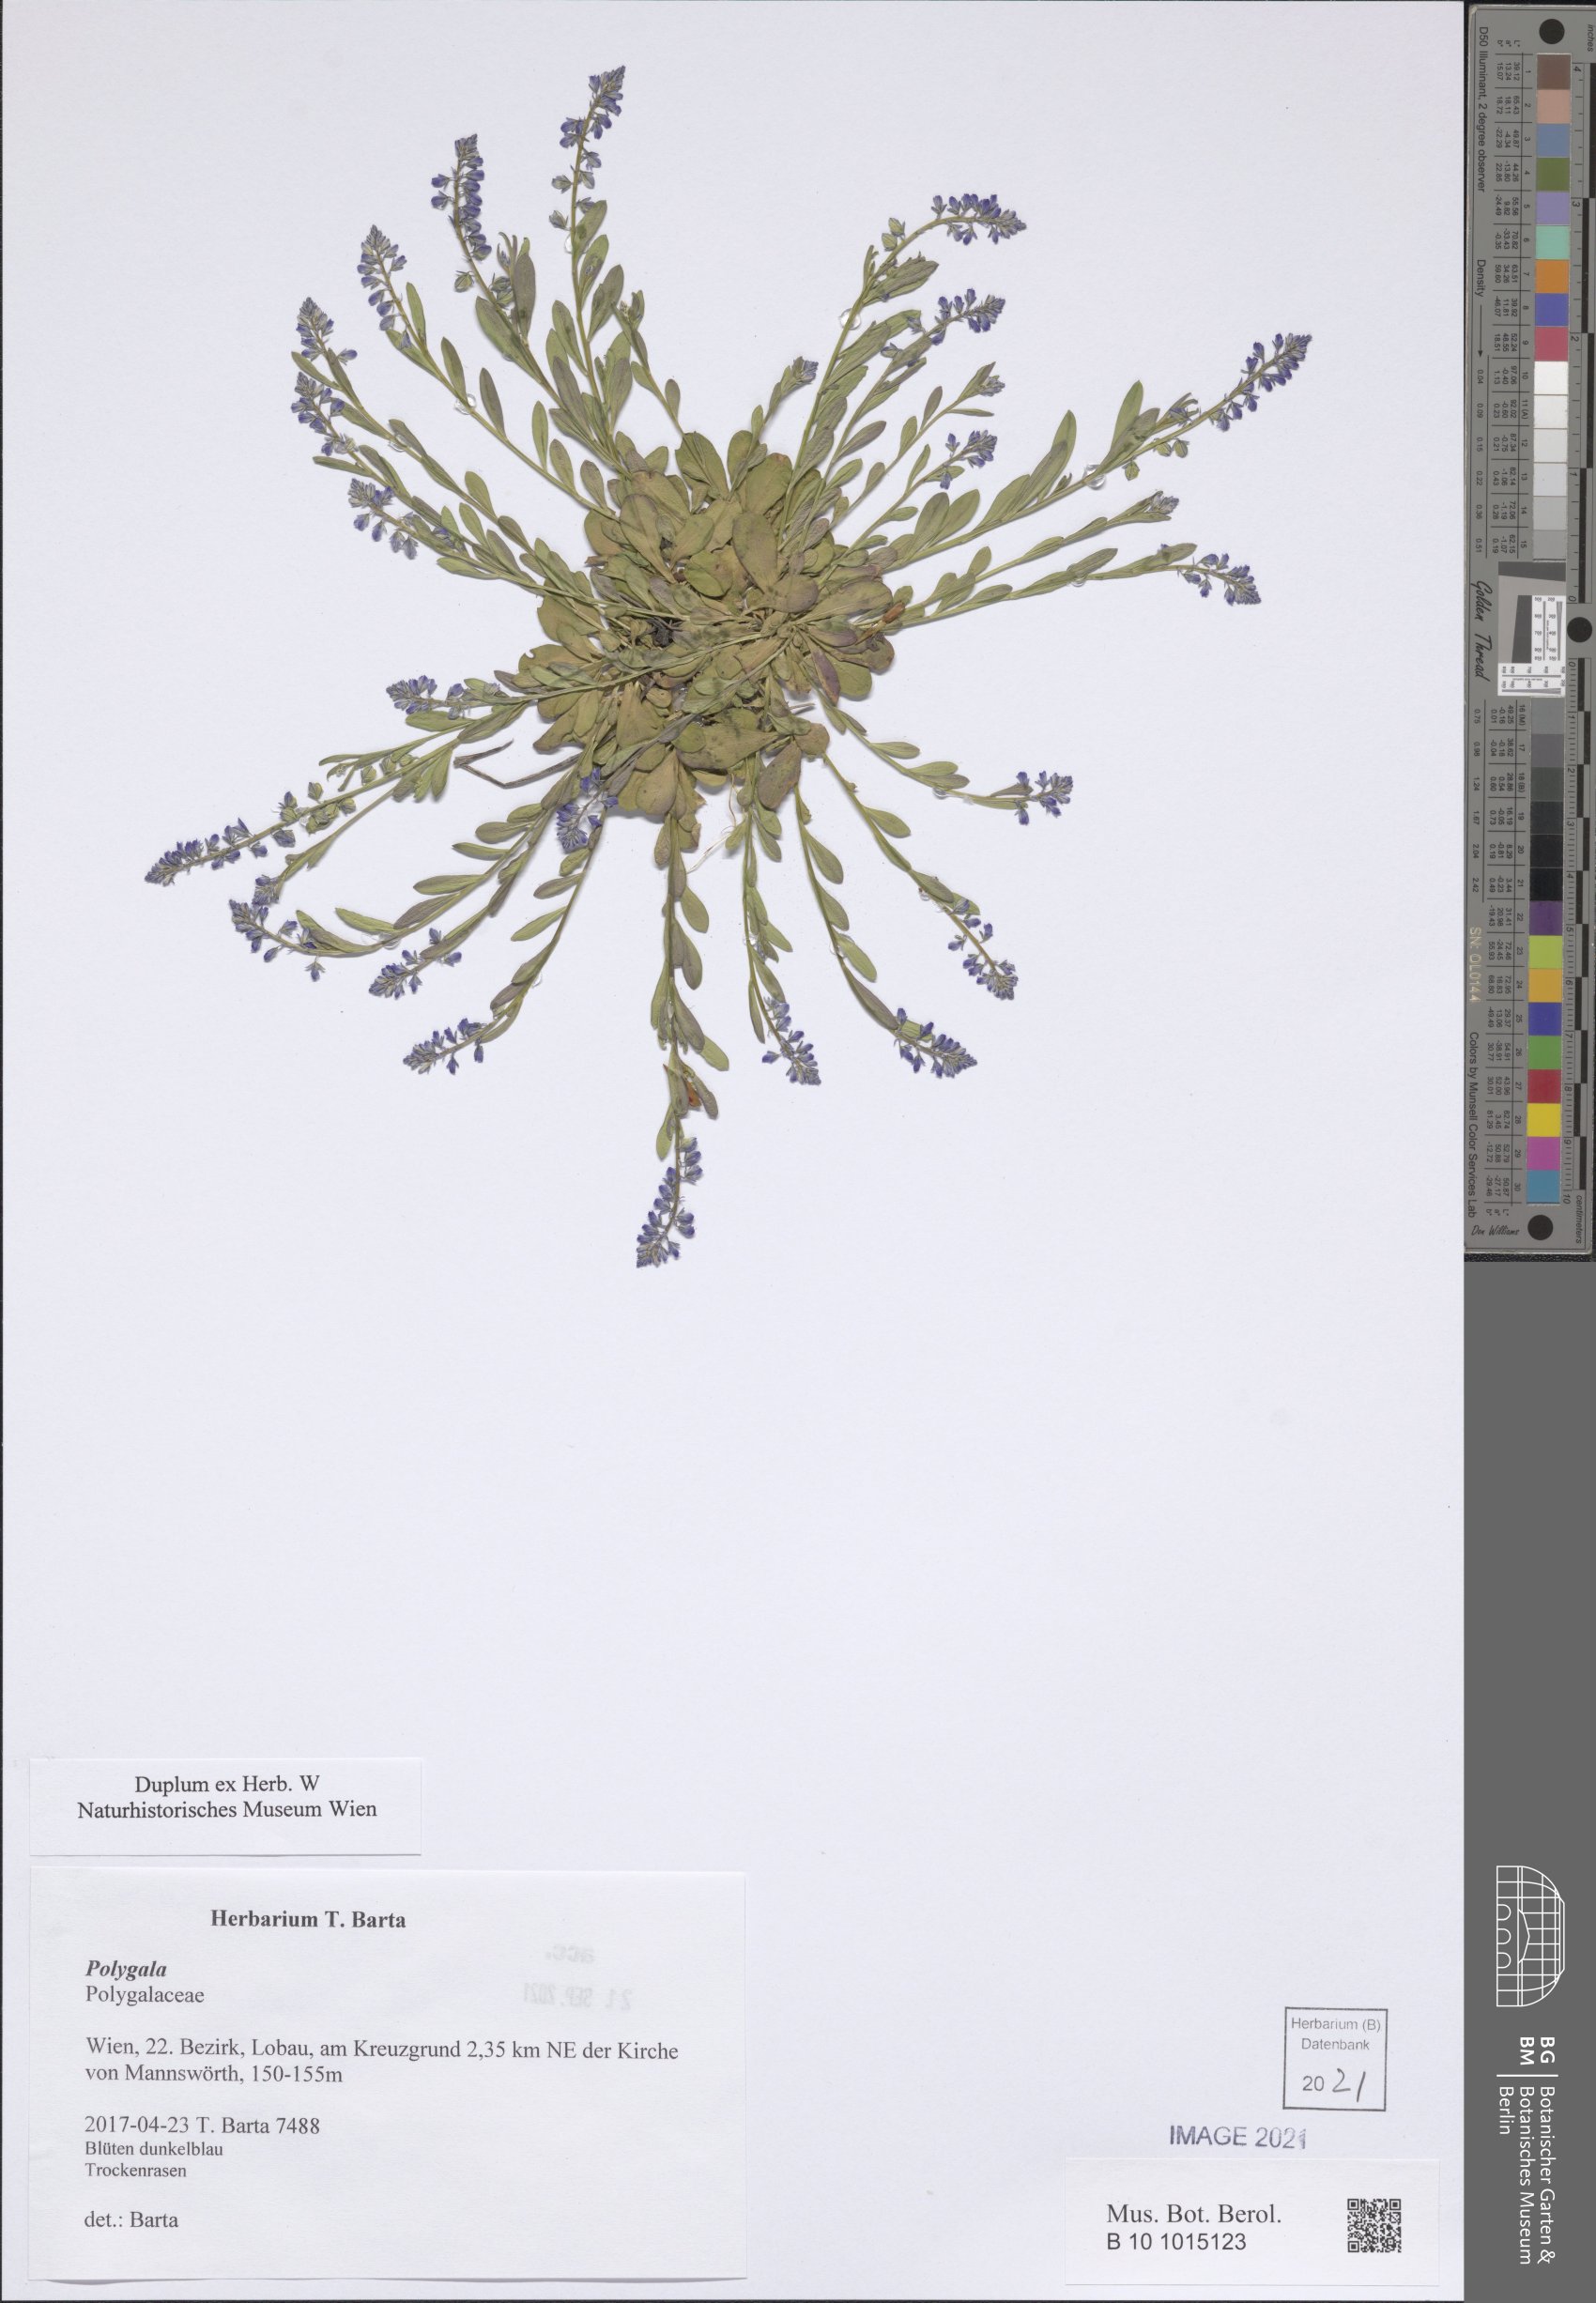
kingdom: Plantae
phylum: Tracheophyta
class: Magnoliopsida
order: Fabales
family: Polygalaceae
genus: Polygala
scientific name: Polygala
